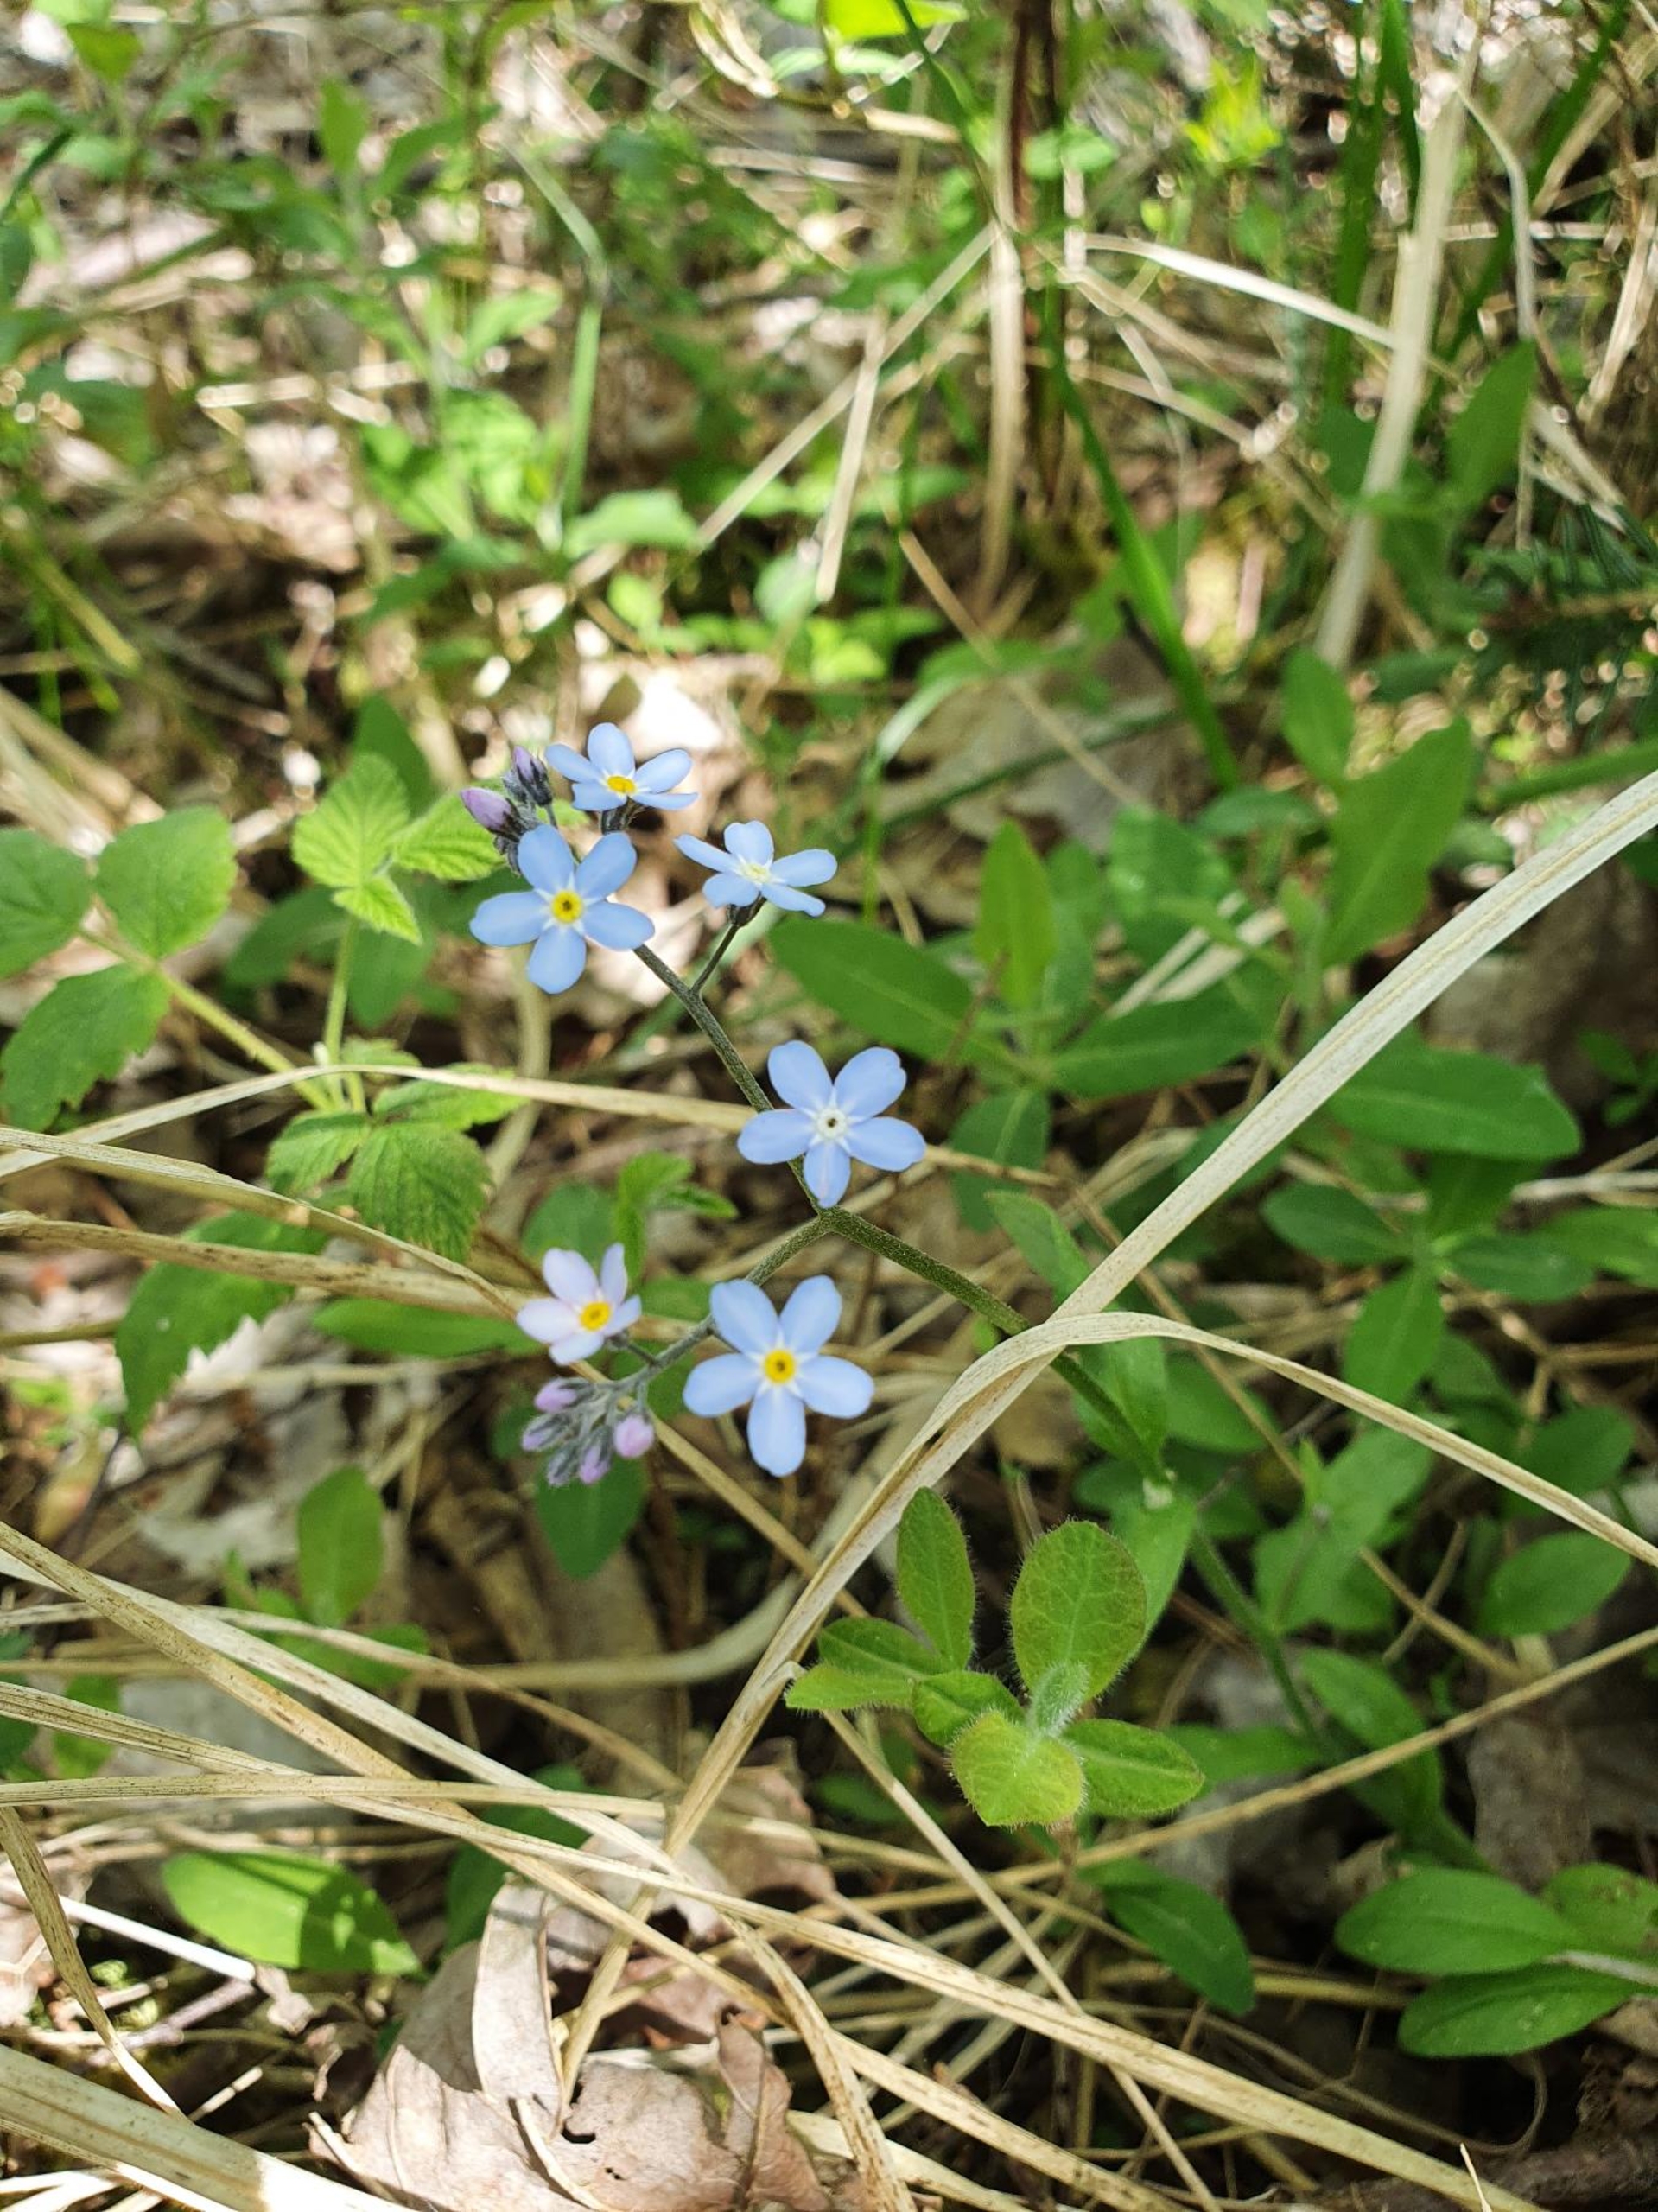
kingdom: Plantae
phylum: Tracheophyta
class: Magnoliopsida
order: Boraginales
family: Boraginaceae
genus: Myosotis
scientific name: Myosotis sylvatica
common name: Skov-forglemmigej
